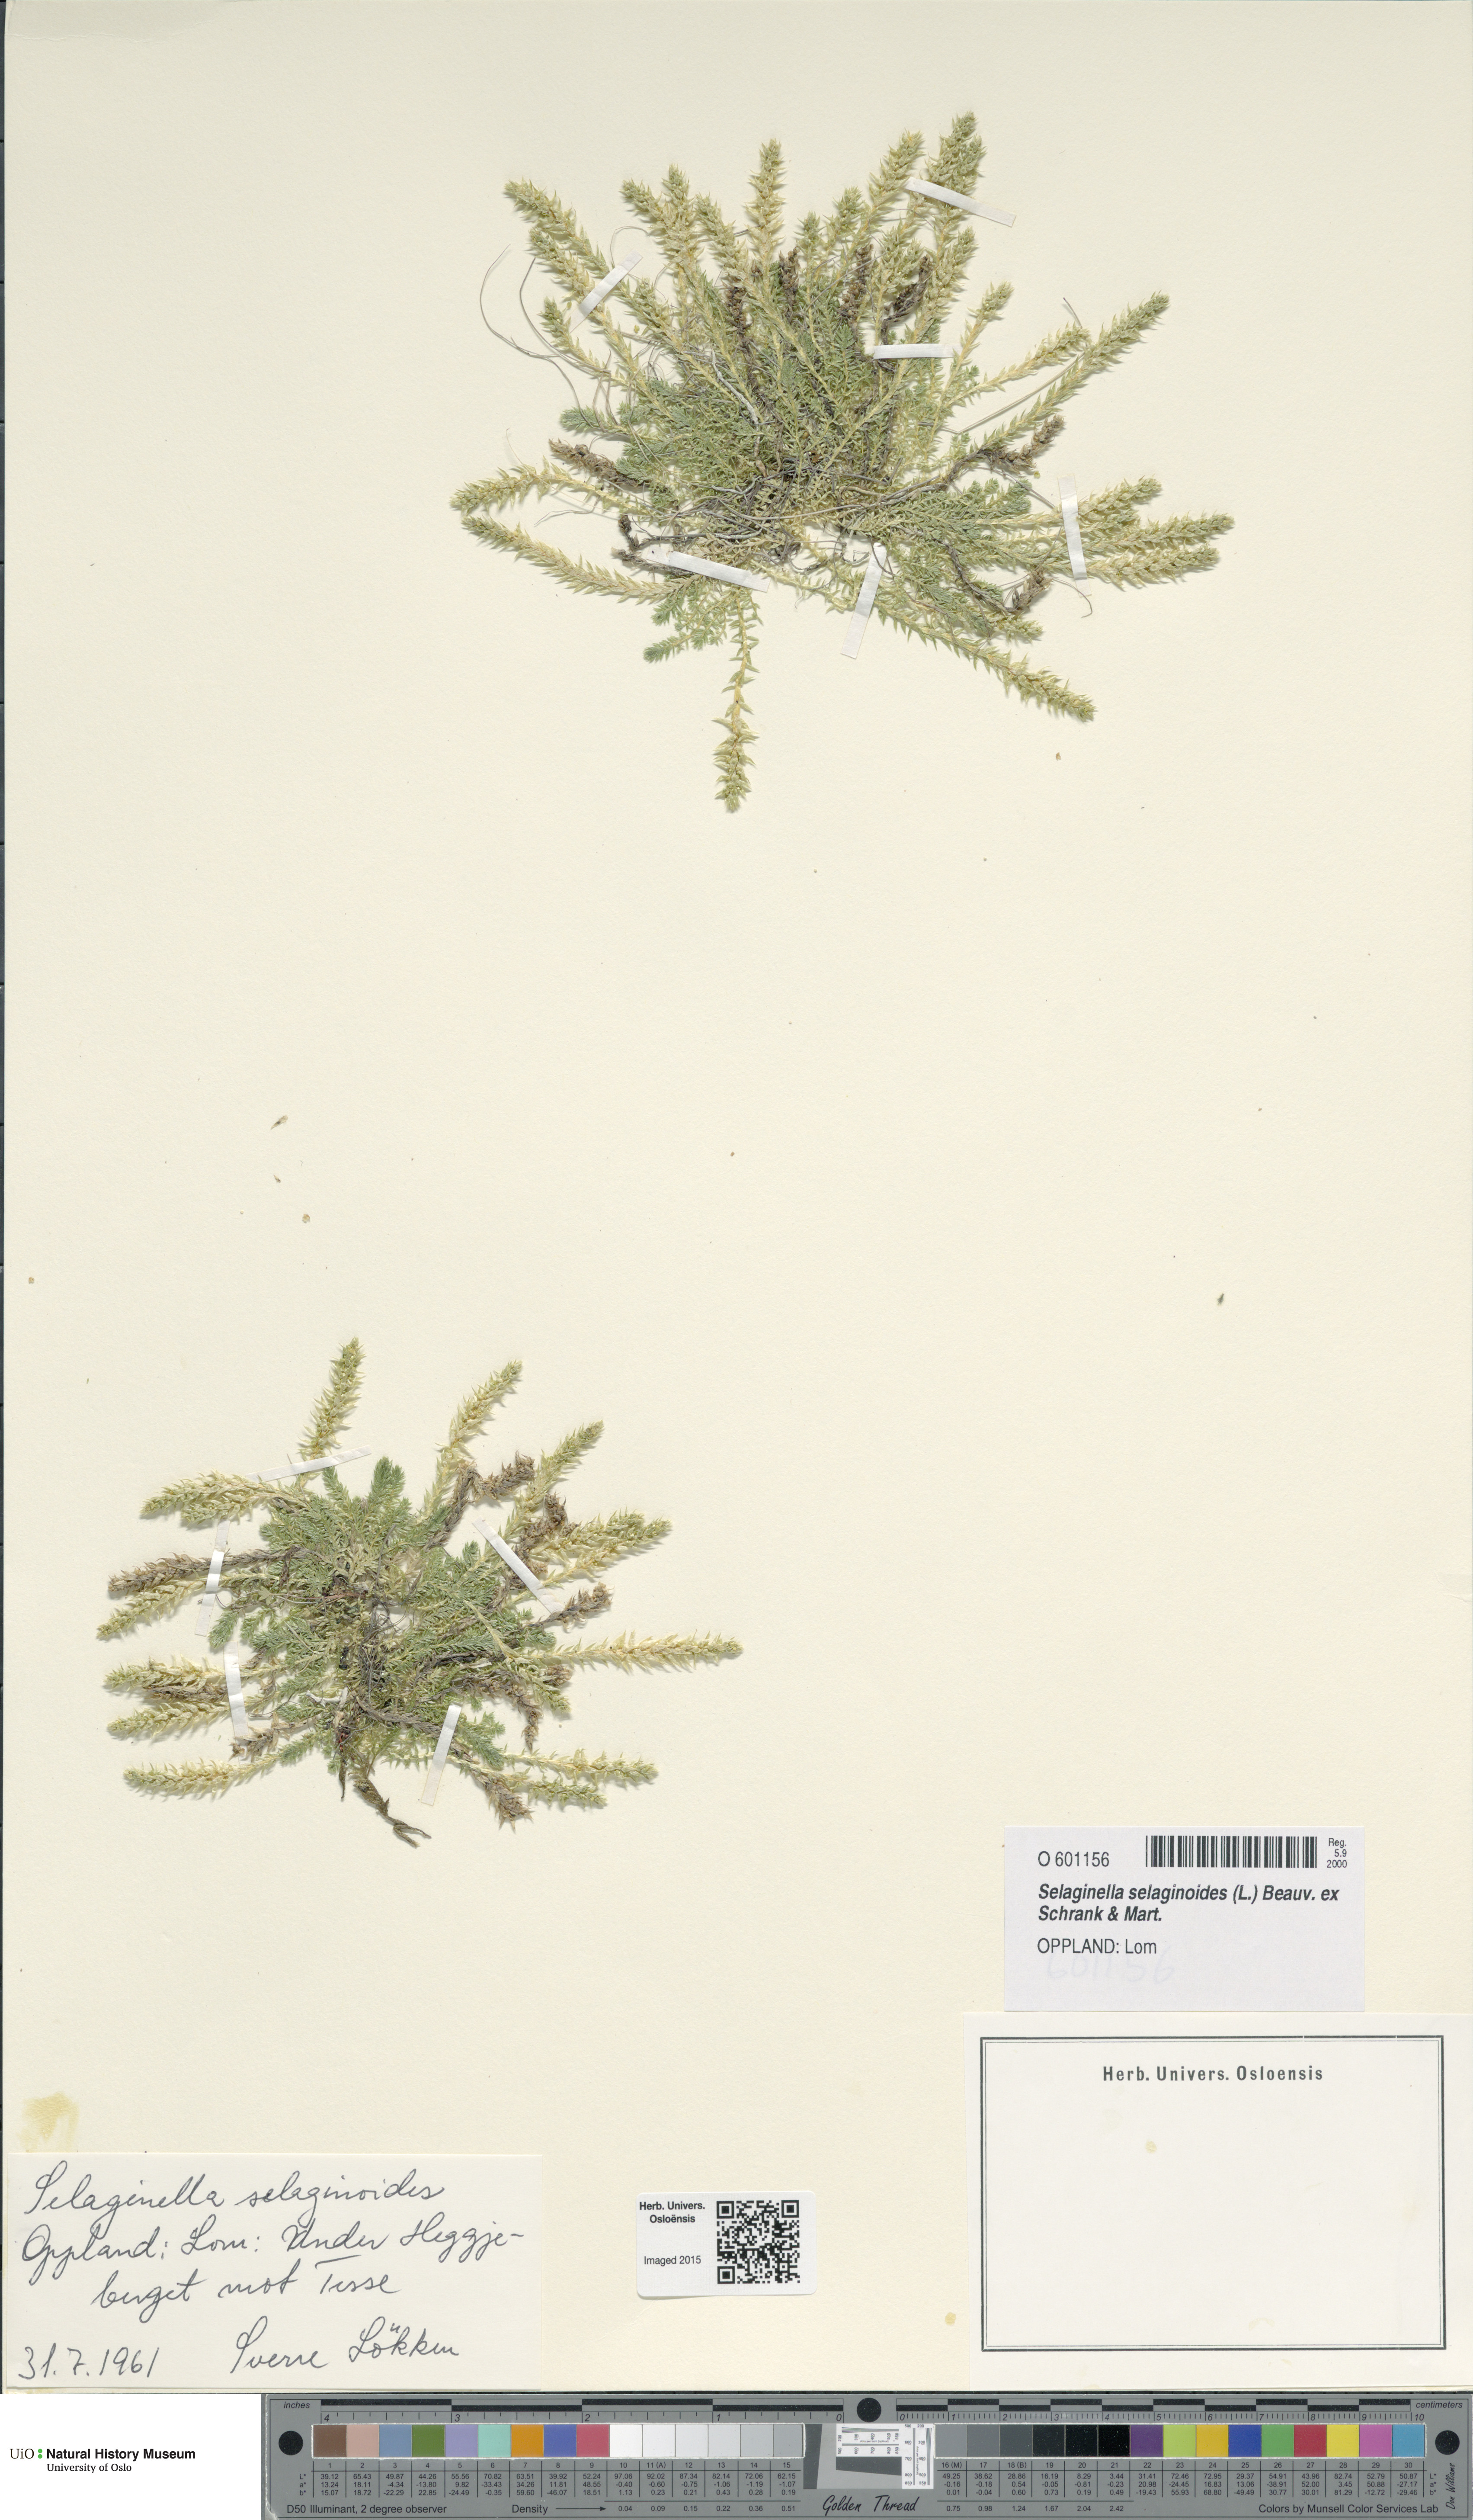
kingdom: Plantae
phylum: Tracheophyta
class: Lycopodiopsida
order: Selaginellales
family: Selaginellaceae
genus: Selaginella
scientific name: Selaginella selaginoides
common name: Prickly mountain-moss
